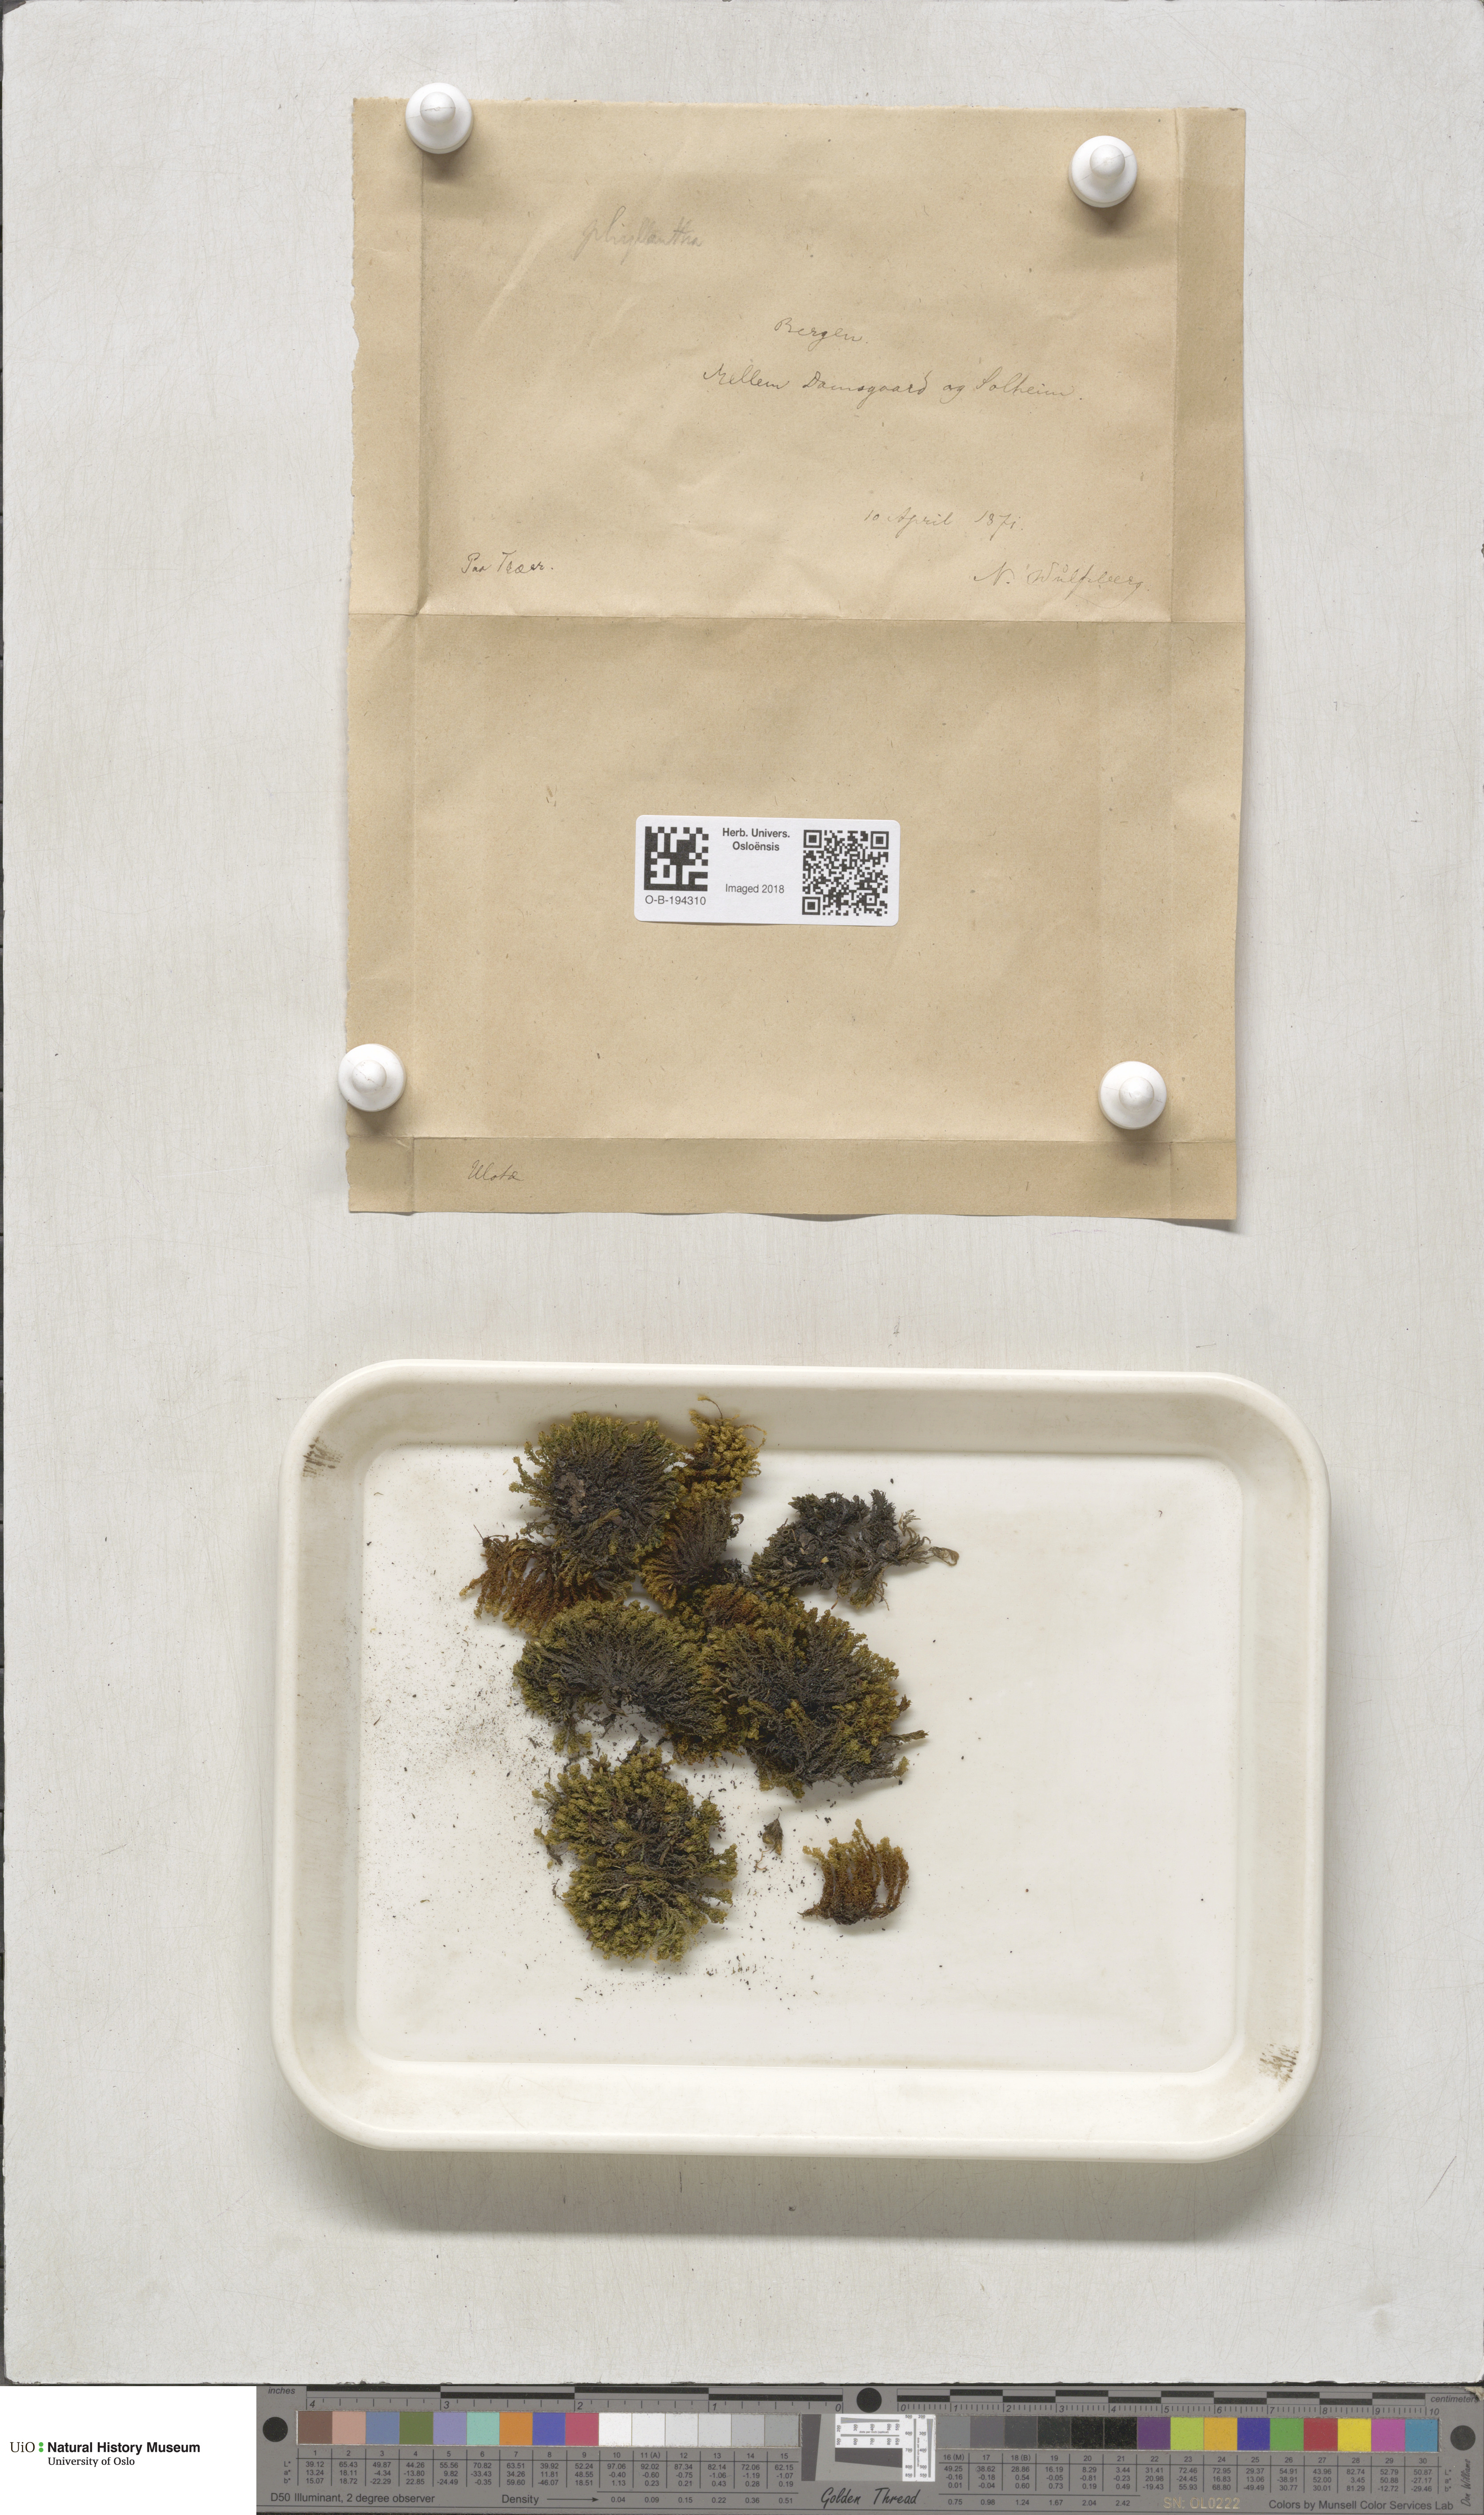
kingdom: Plantae
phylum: Bryophyta
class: Bryopsida
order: Orthotrichales
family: Orthotrichaceae
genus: Plenogemma
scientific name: Plenogemma phyllantha
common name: Frizzled pincushion
